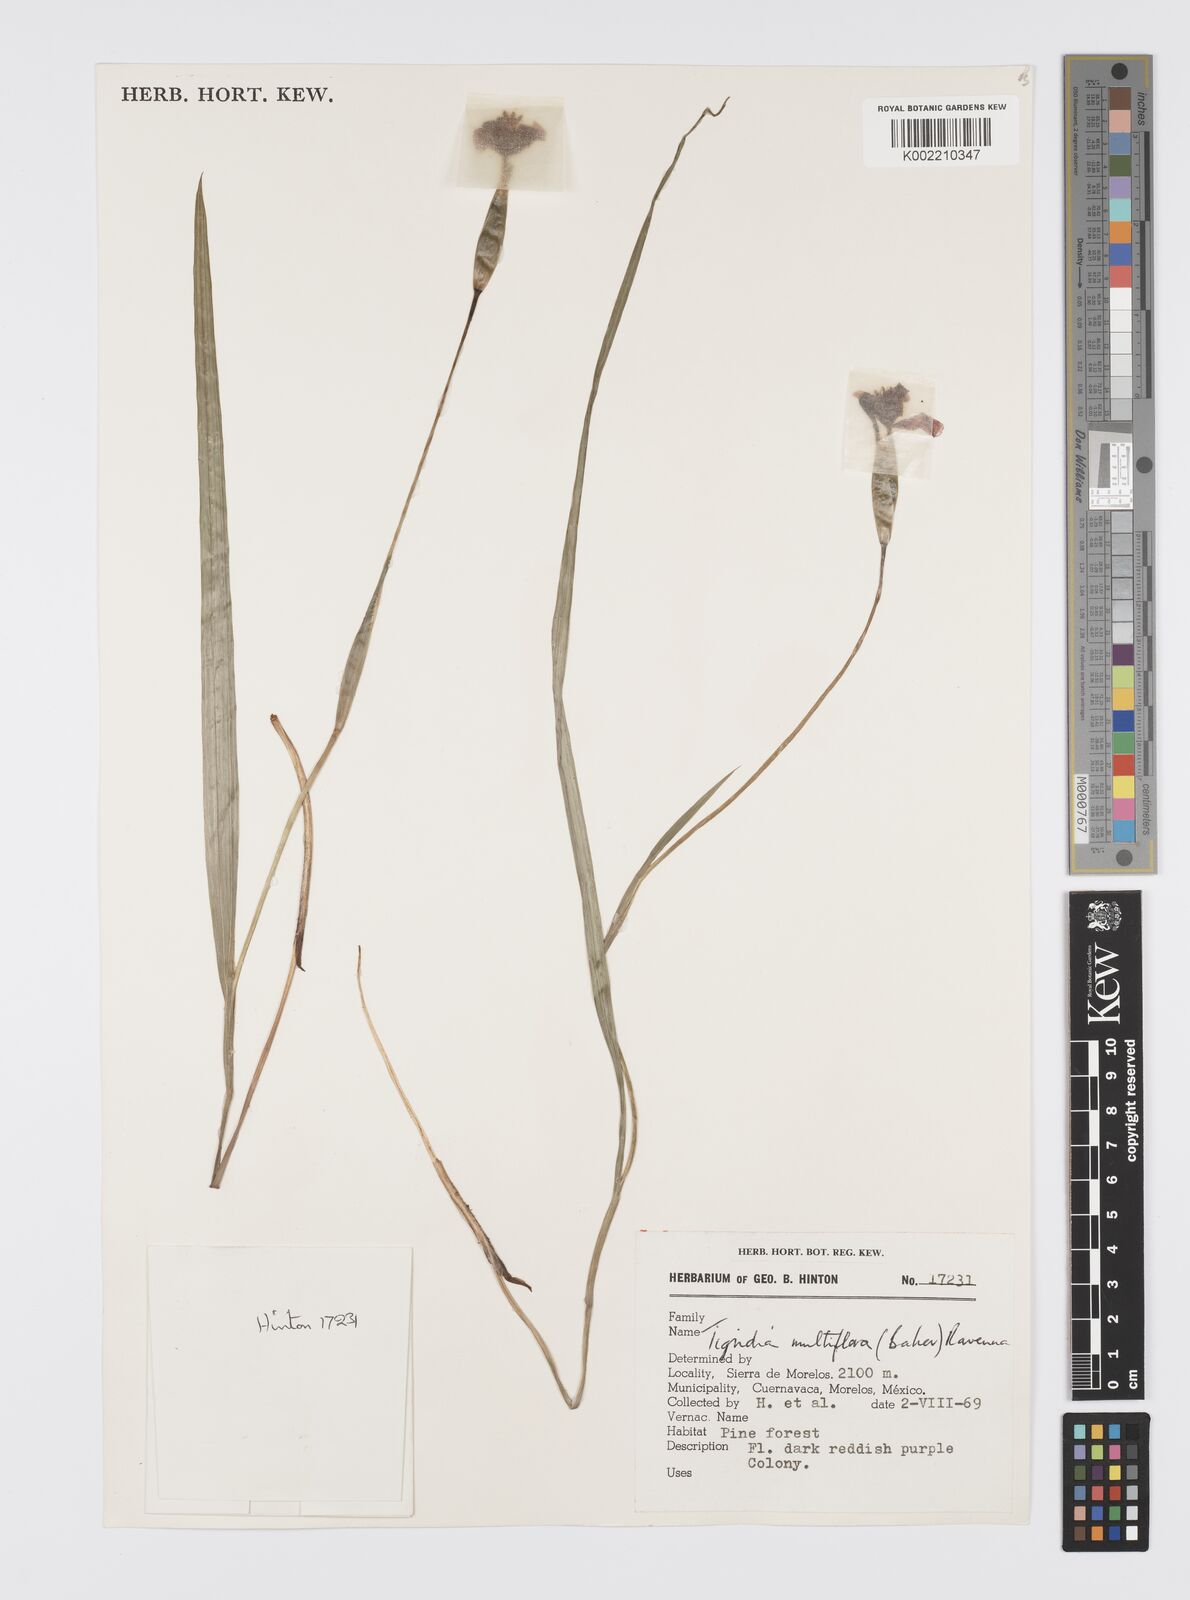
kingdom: Plantae
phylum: Tracheophyta
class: Liliopsida
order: Asparagales
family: Iridaceae
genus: Tigridia
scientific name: Tigridia multiflora
